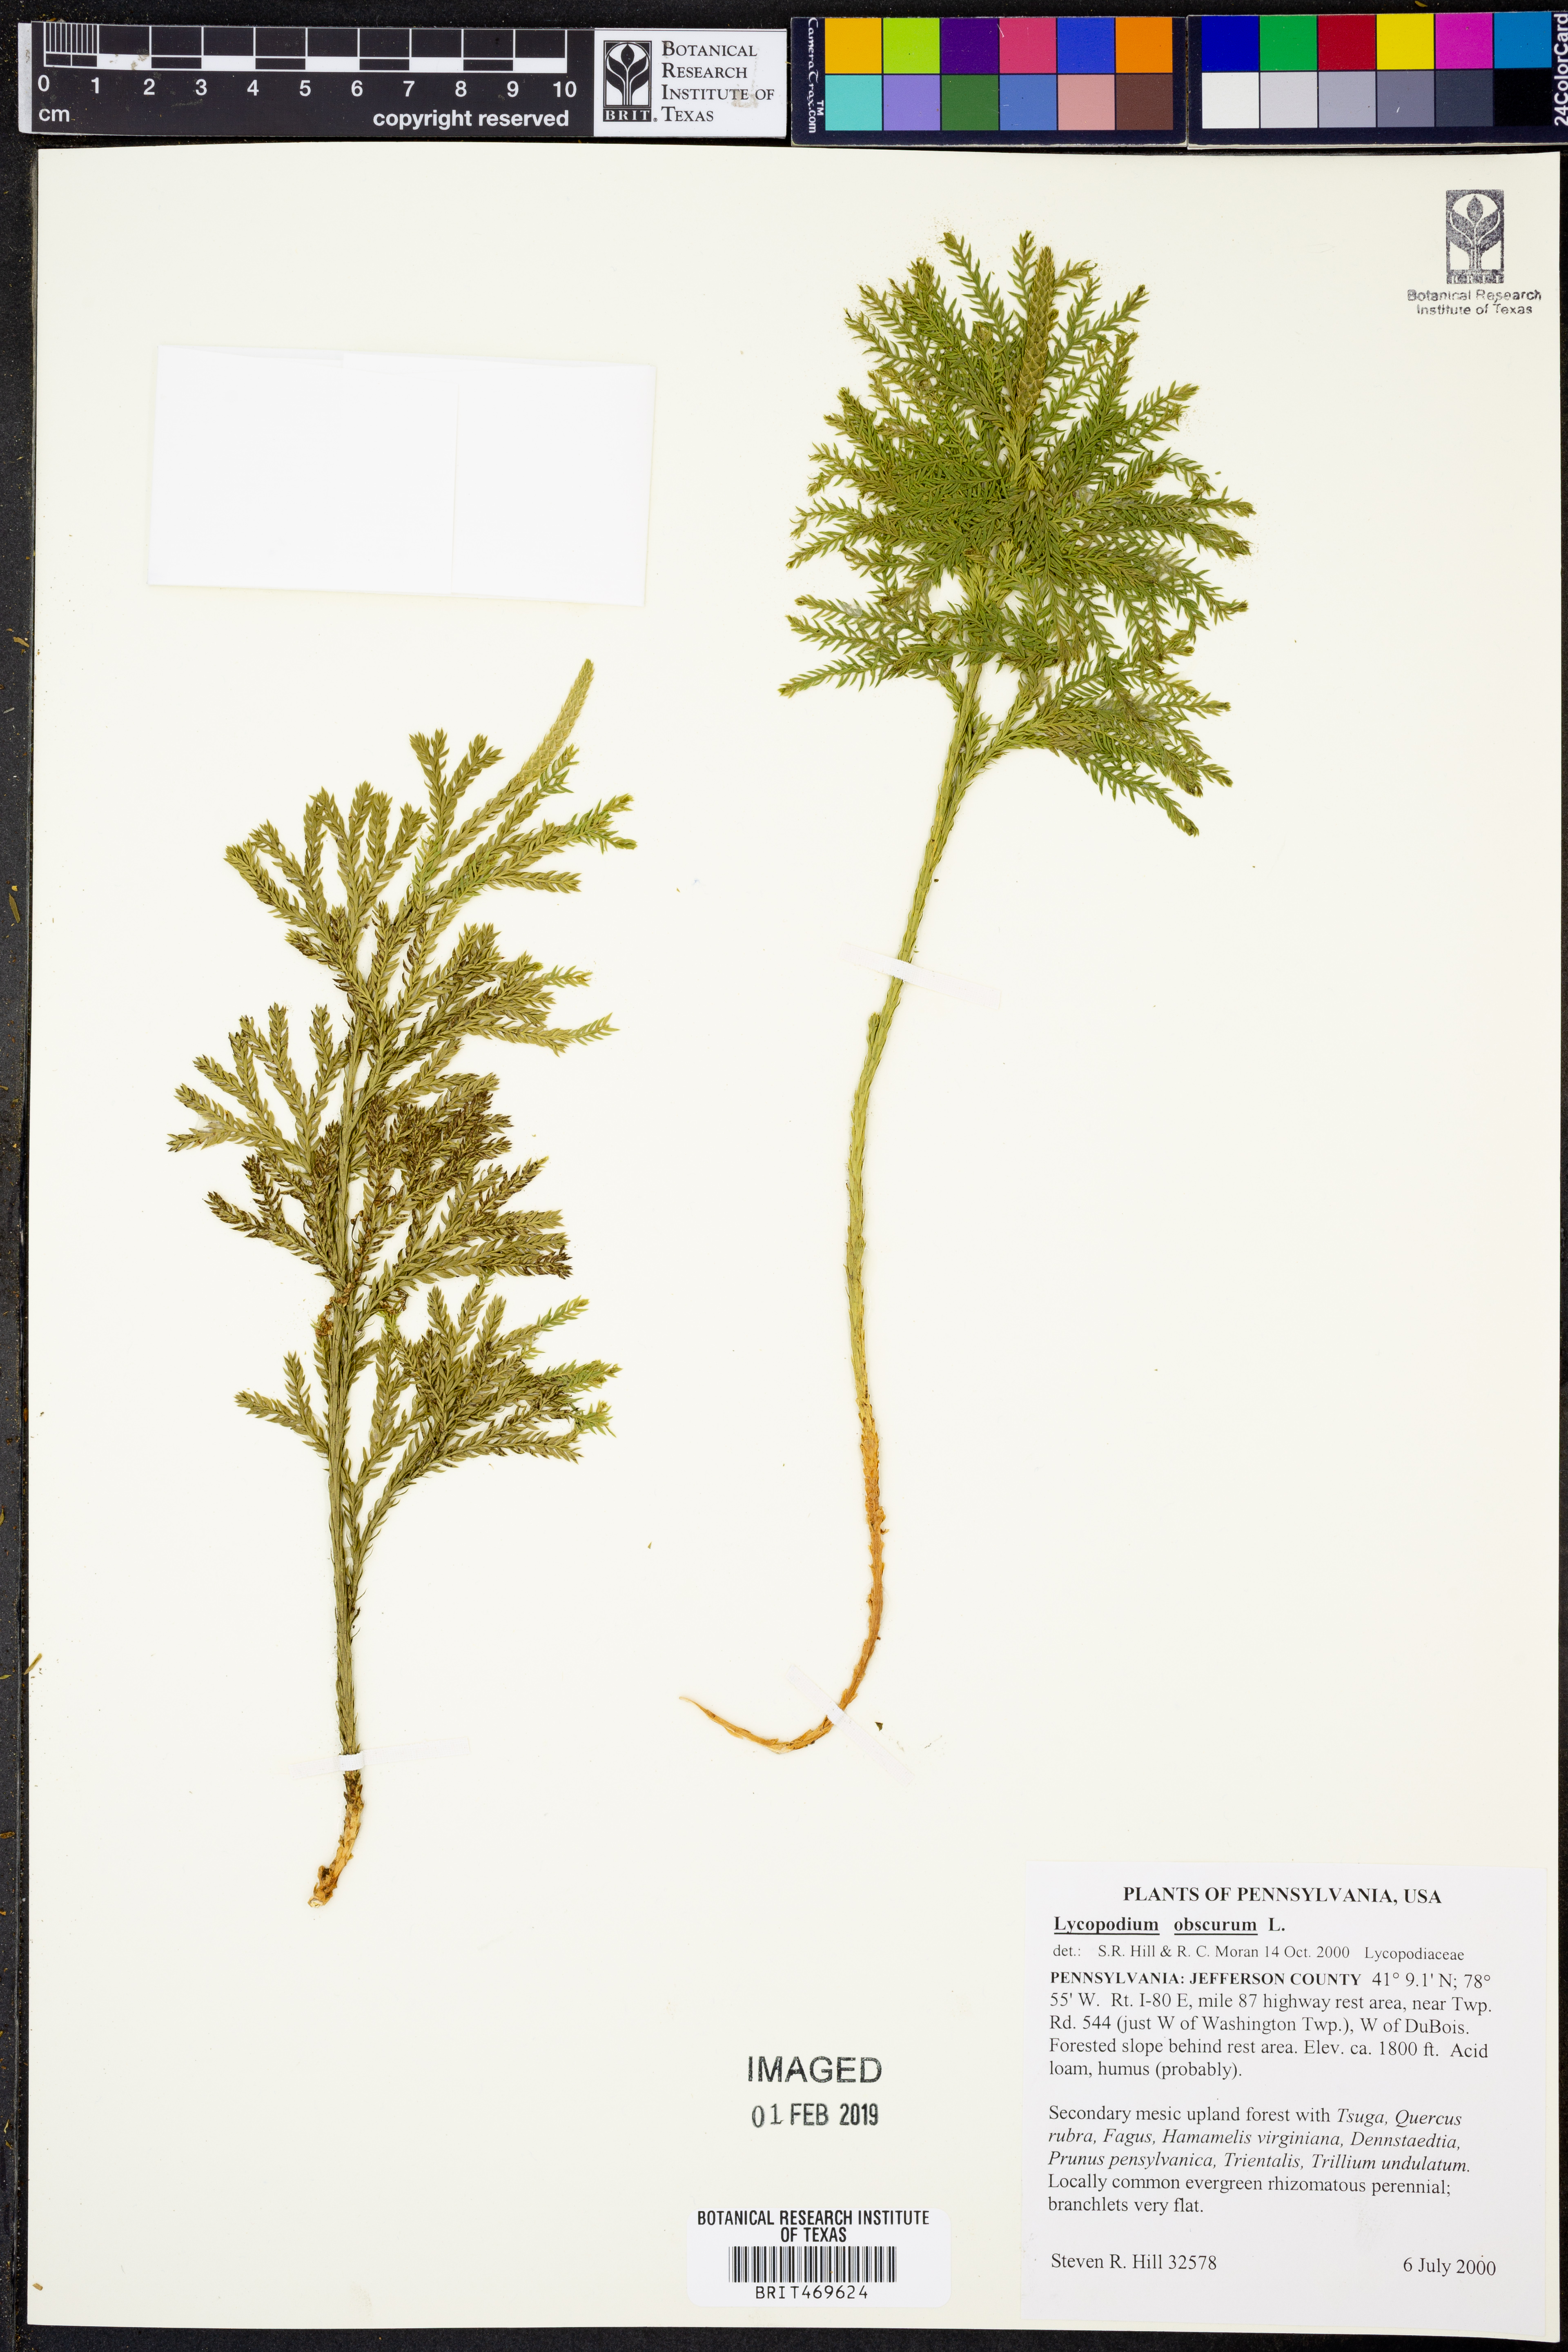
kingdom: Plantae
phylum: Tracheophyta
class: Lycopodiopsida
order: Lycopodiales
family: Lycopodiaceae
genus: Dendrolycopodium
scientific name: Dendrolycopodium obscurum
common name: Common ground-pine
